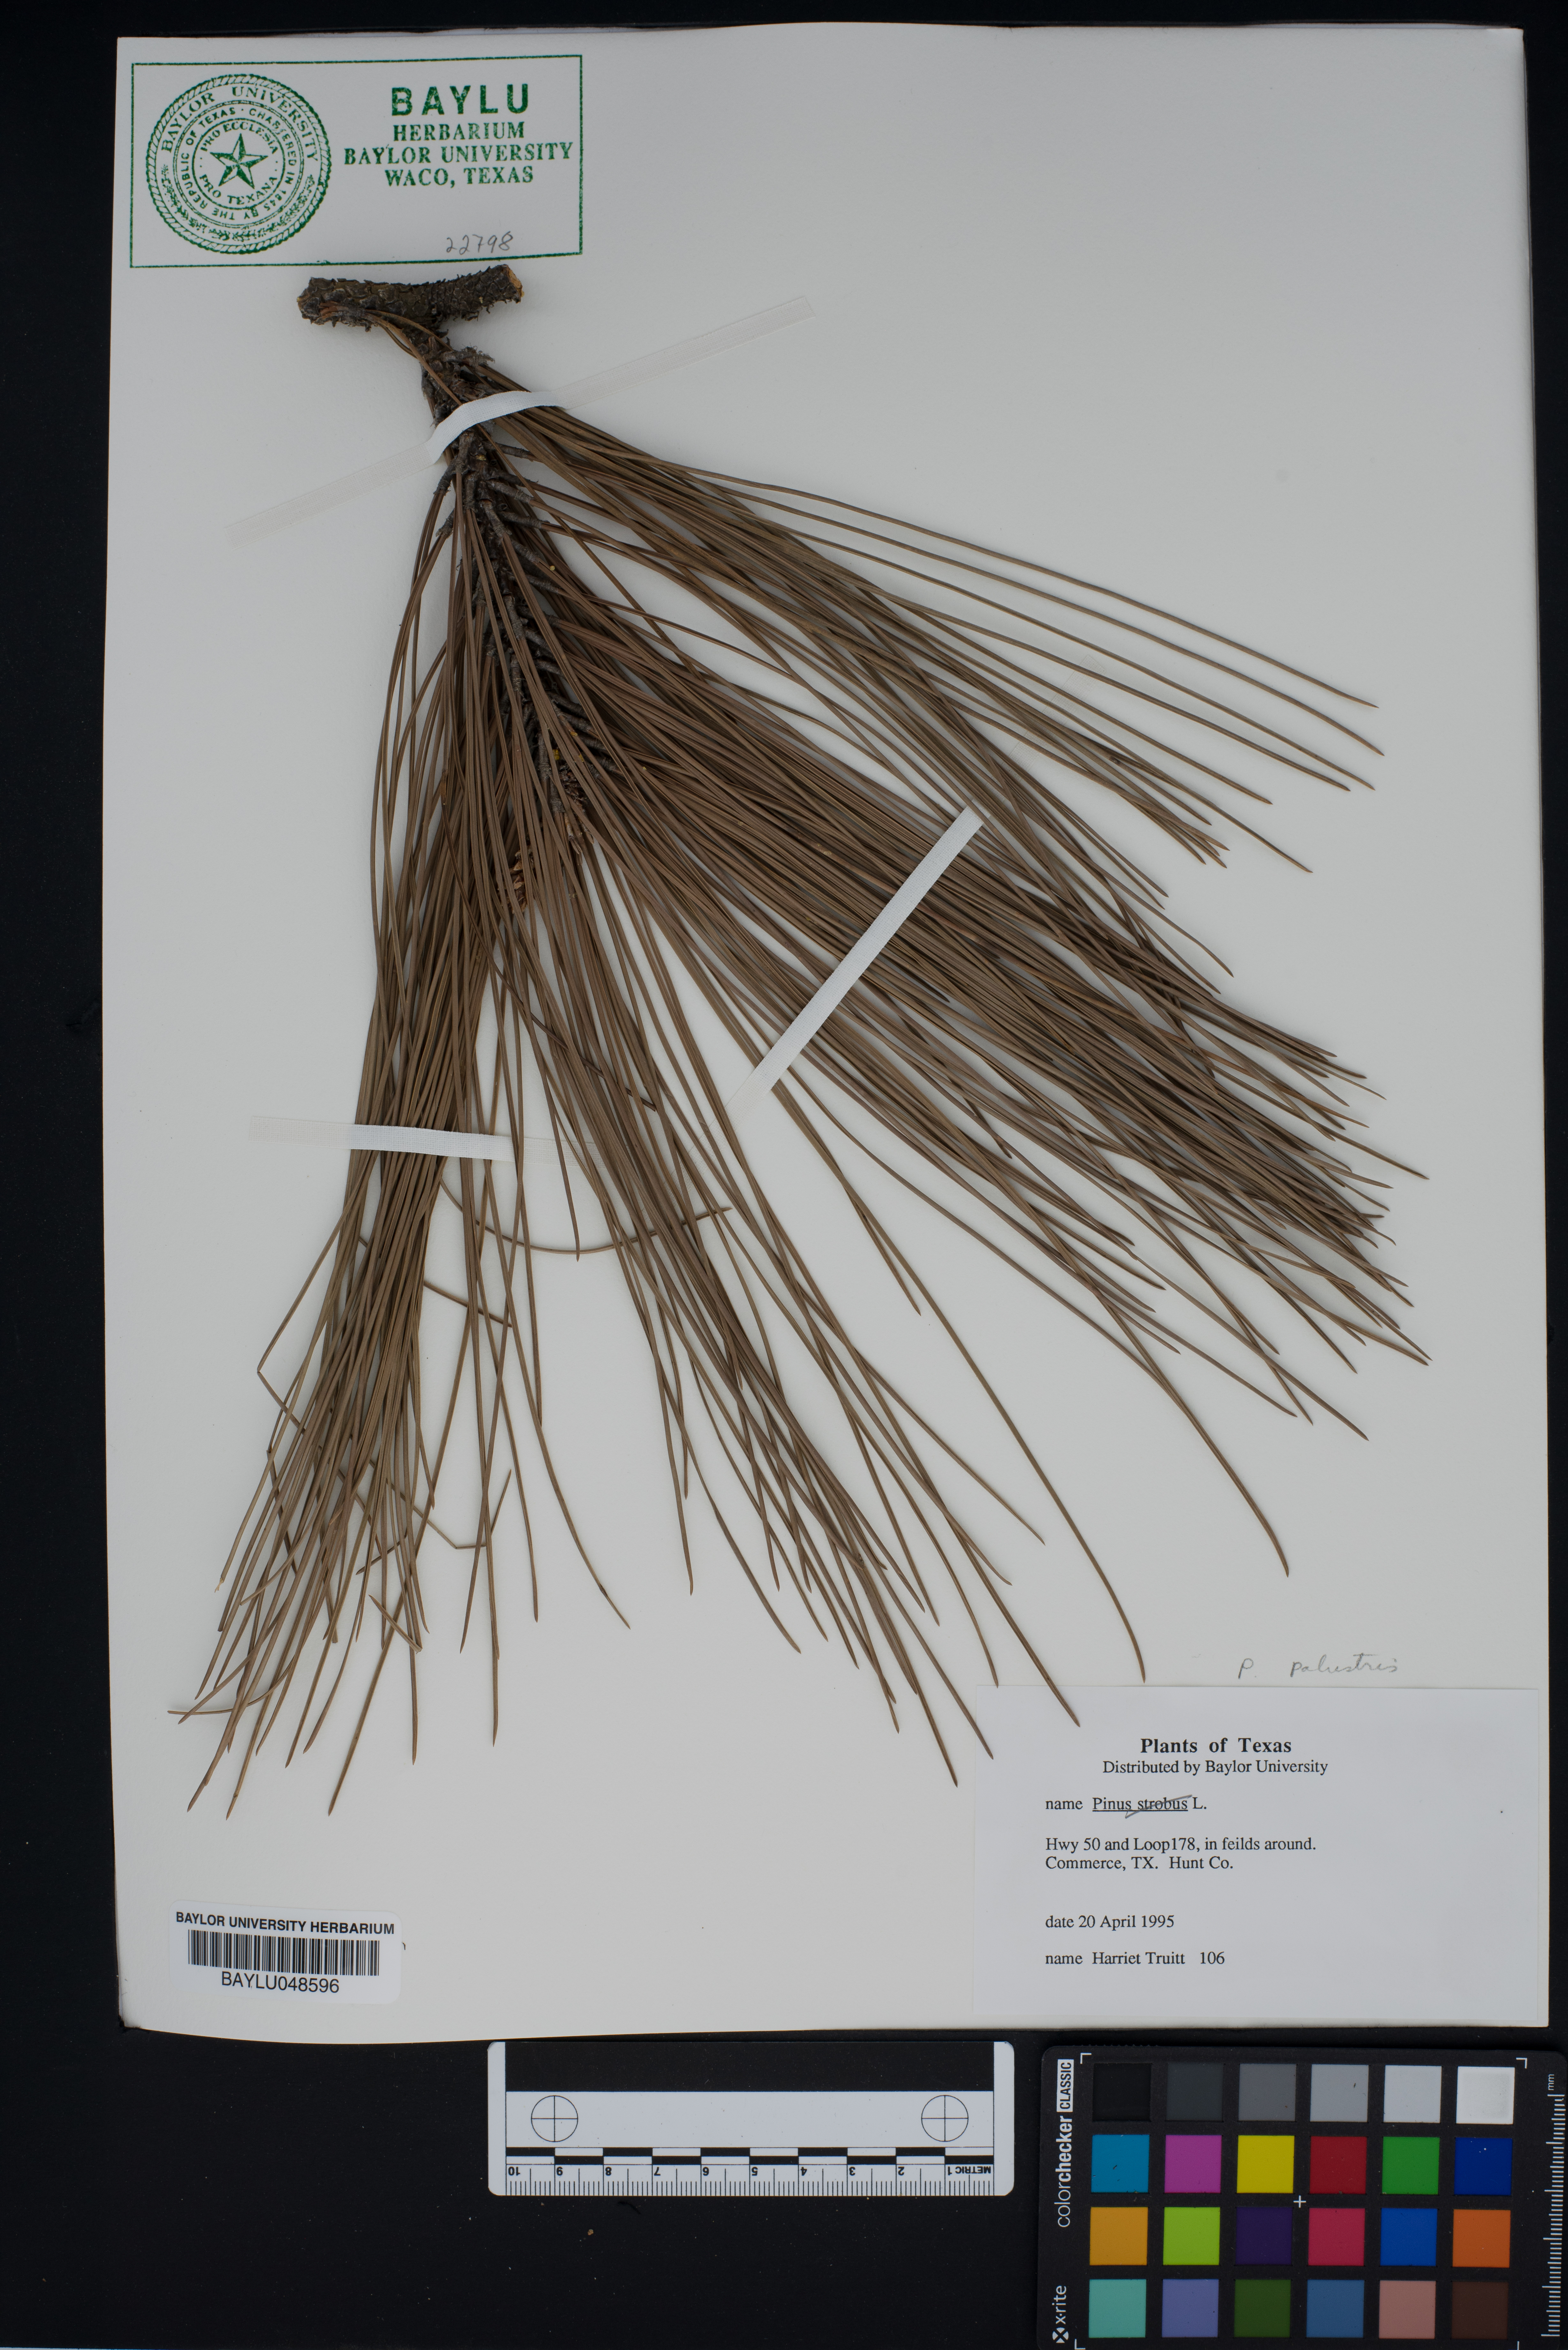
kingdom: Plantae
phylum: Tracheophyta
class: Pinopsida
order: Pinales
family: Pinaceae
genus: Pinus
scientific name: Pinus palustris
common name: Longleaf pine
